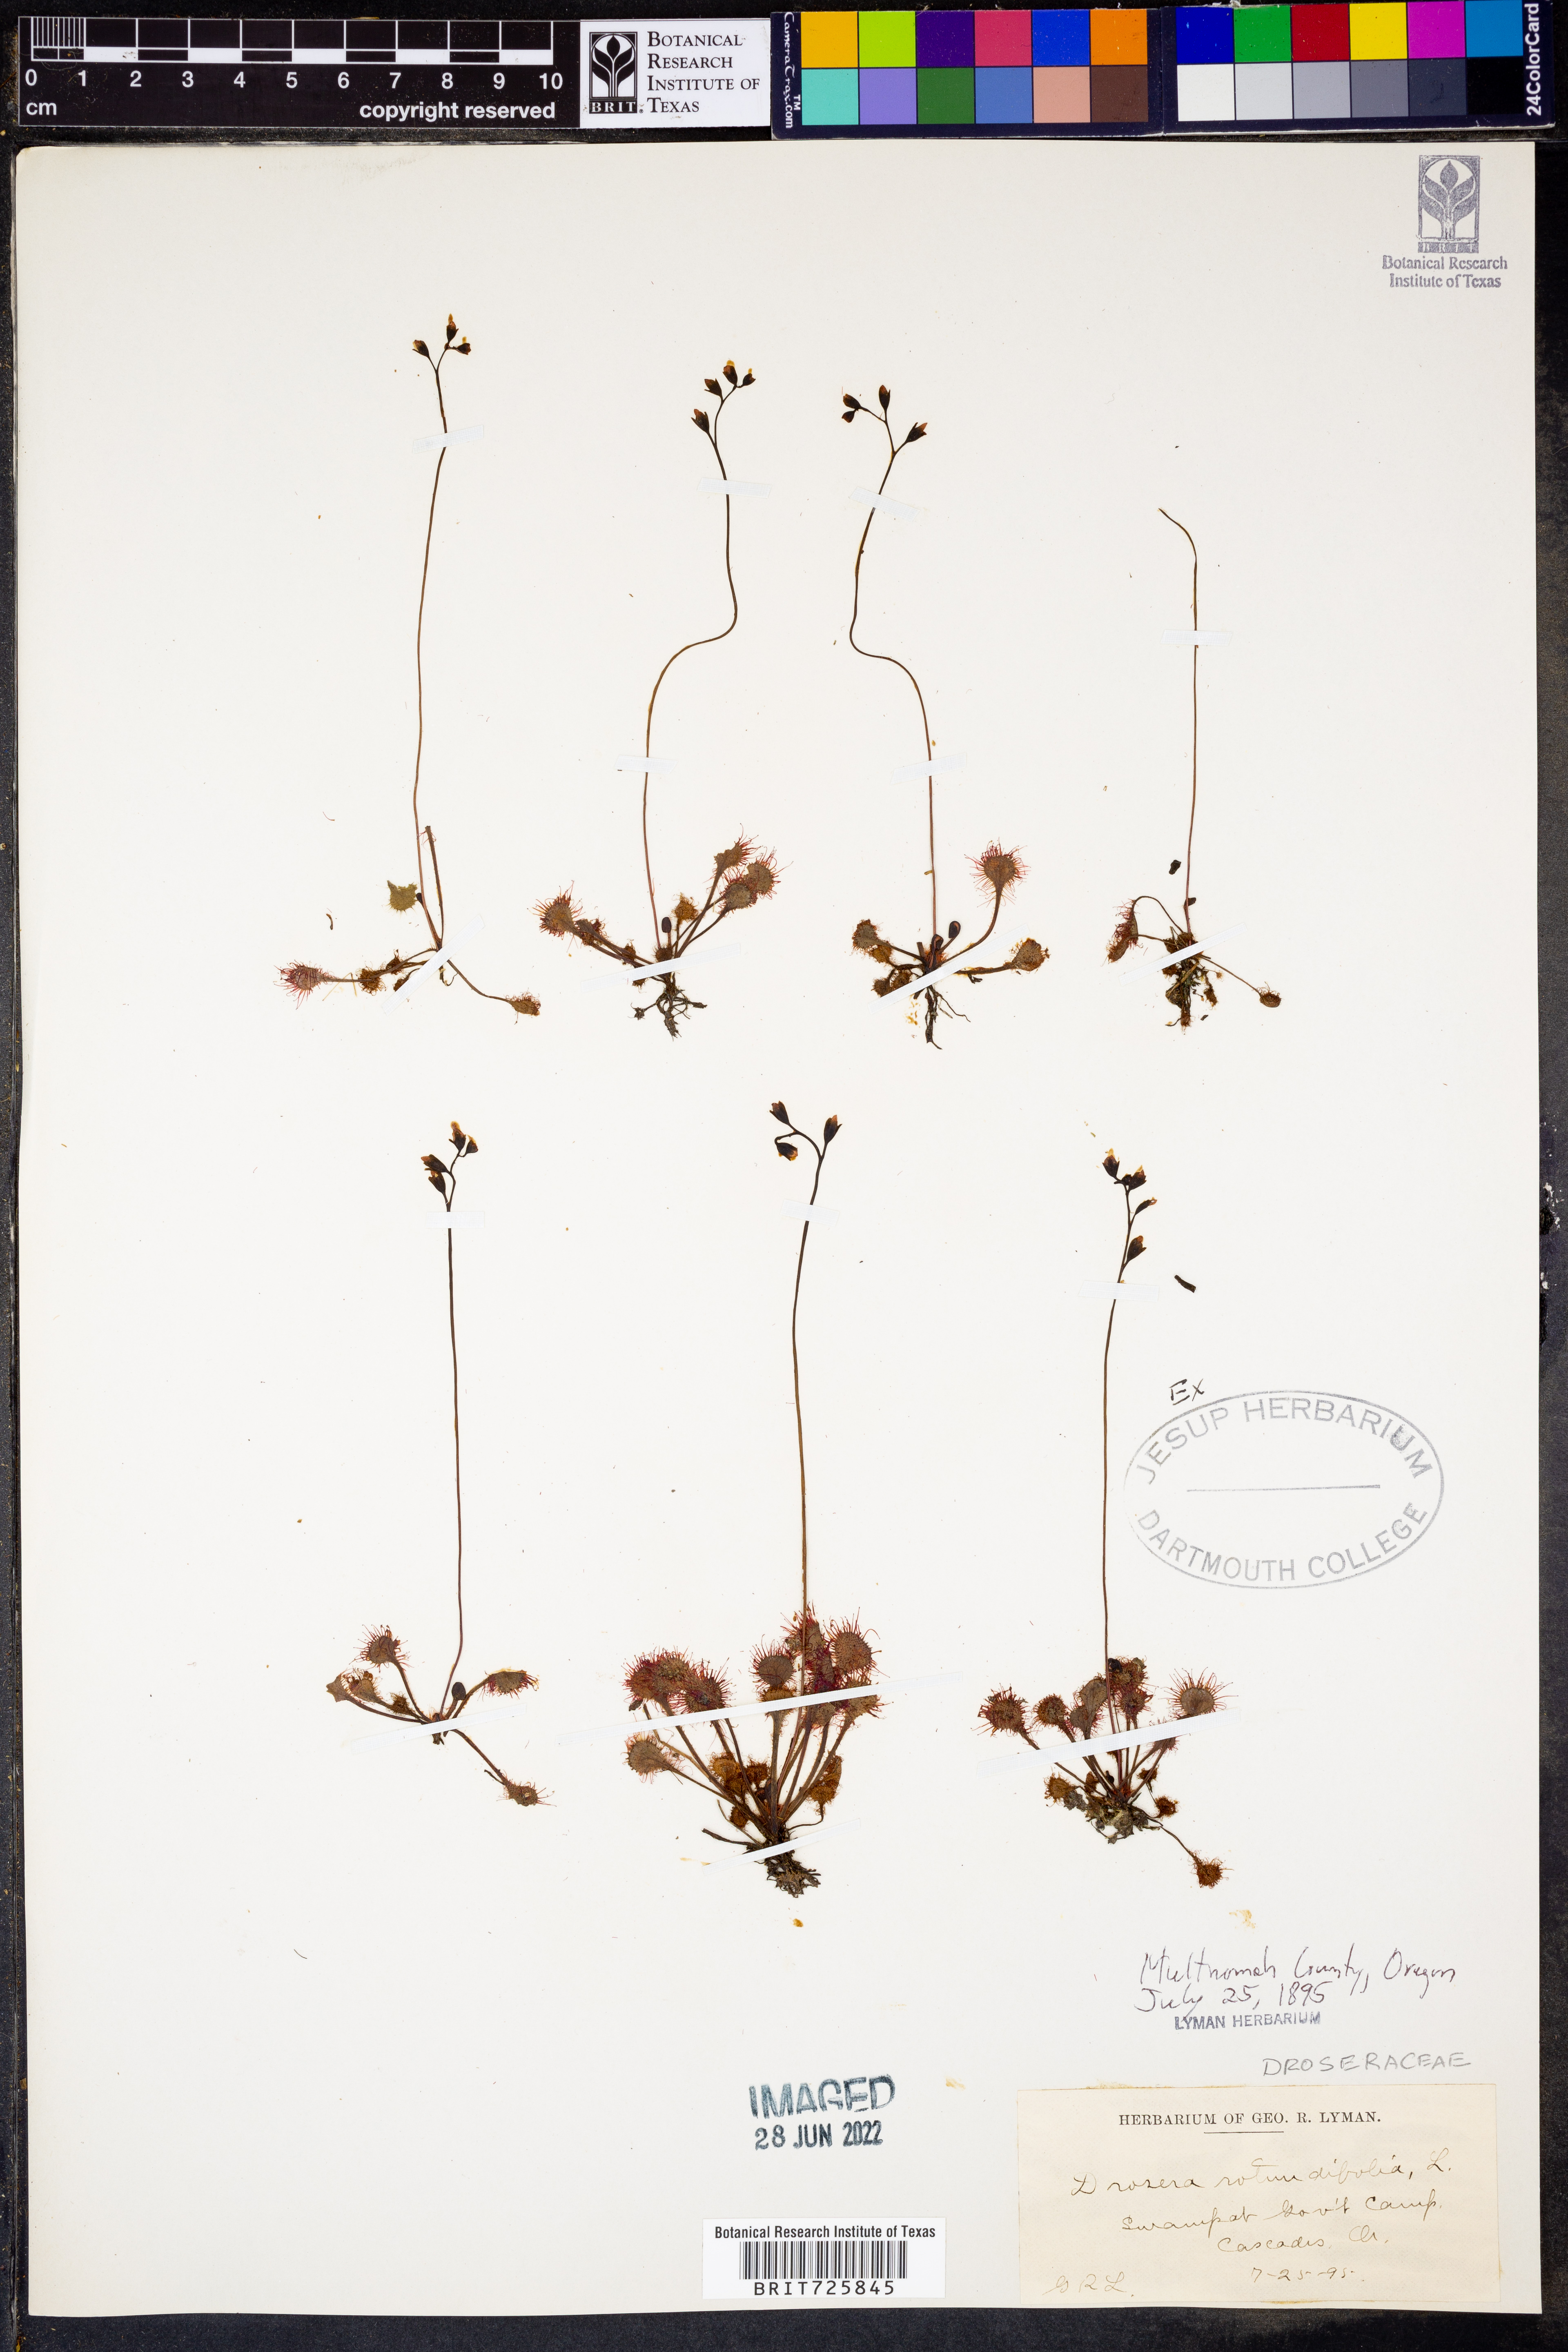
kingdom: Plantae
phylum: Tracheophyta
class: Magnoliopsida
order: Caryophyllales
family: Droseraceae
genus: Drosera
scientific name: Drosera rotundifolia
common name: Round-leaved sundew
